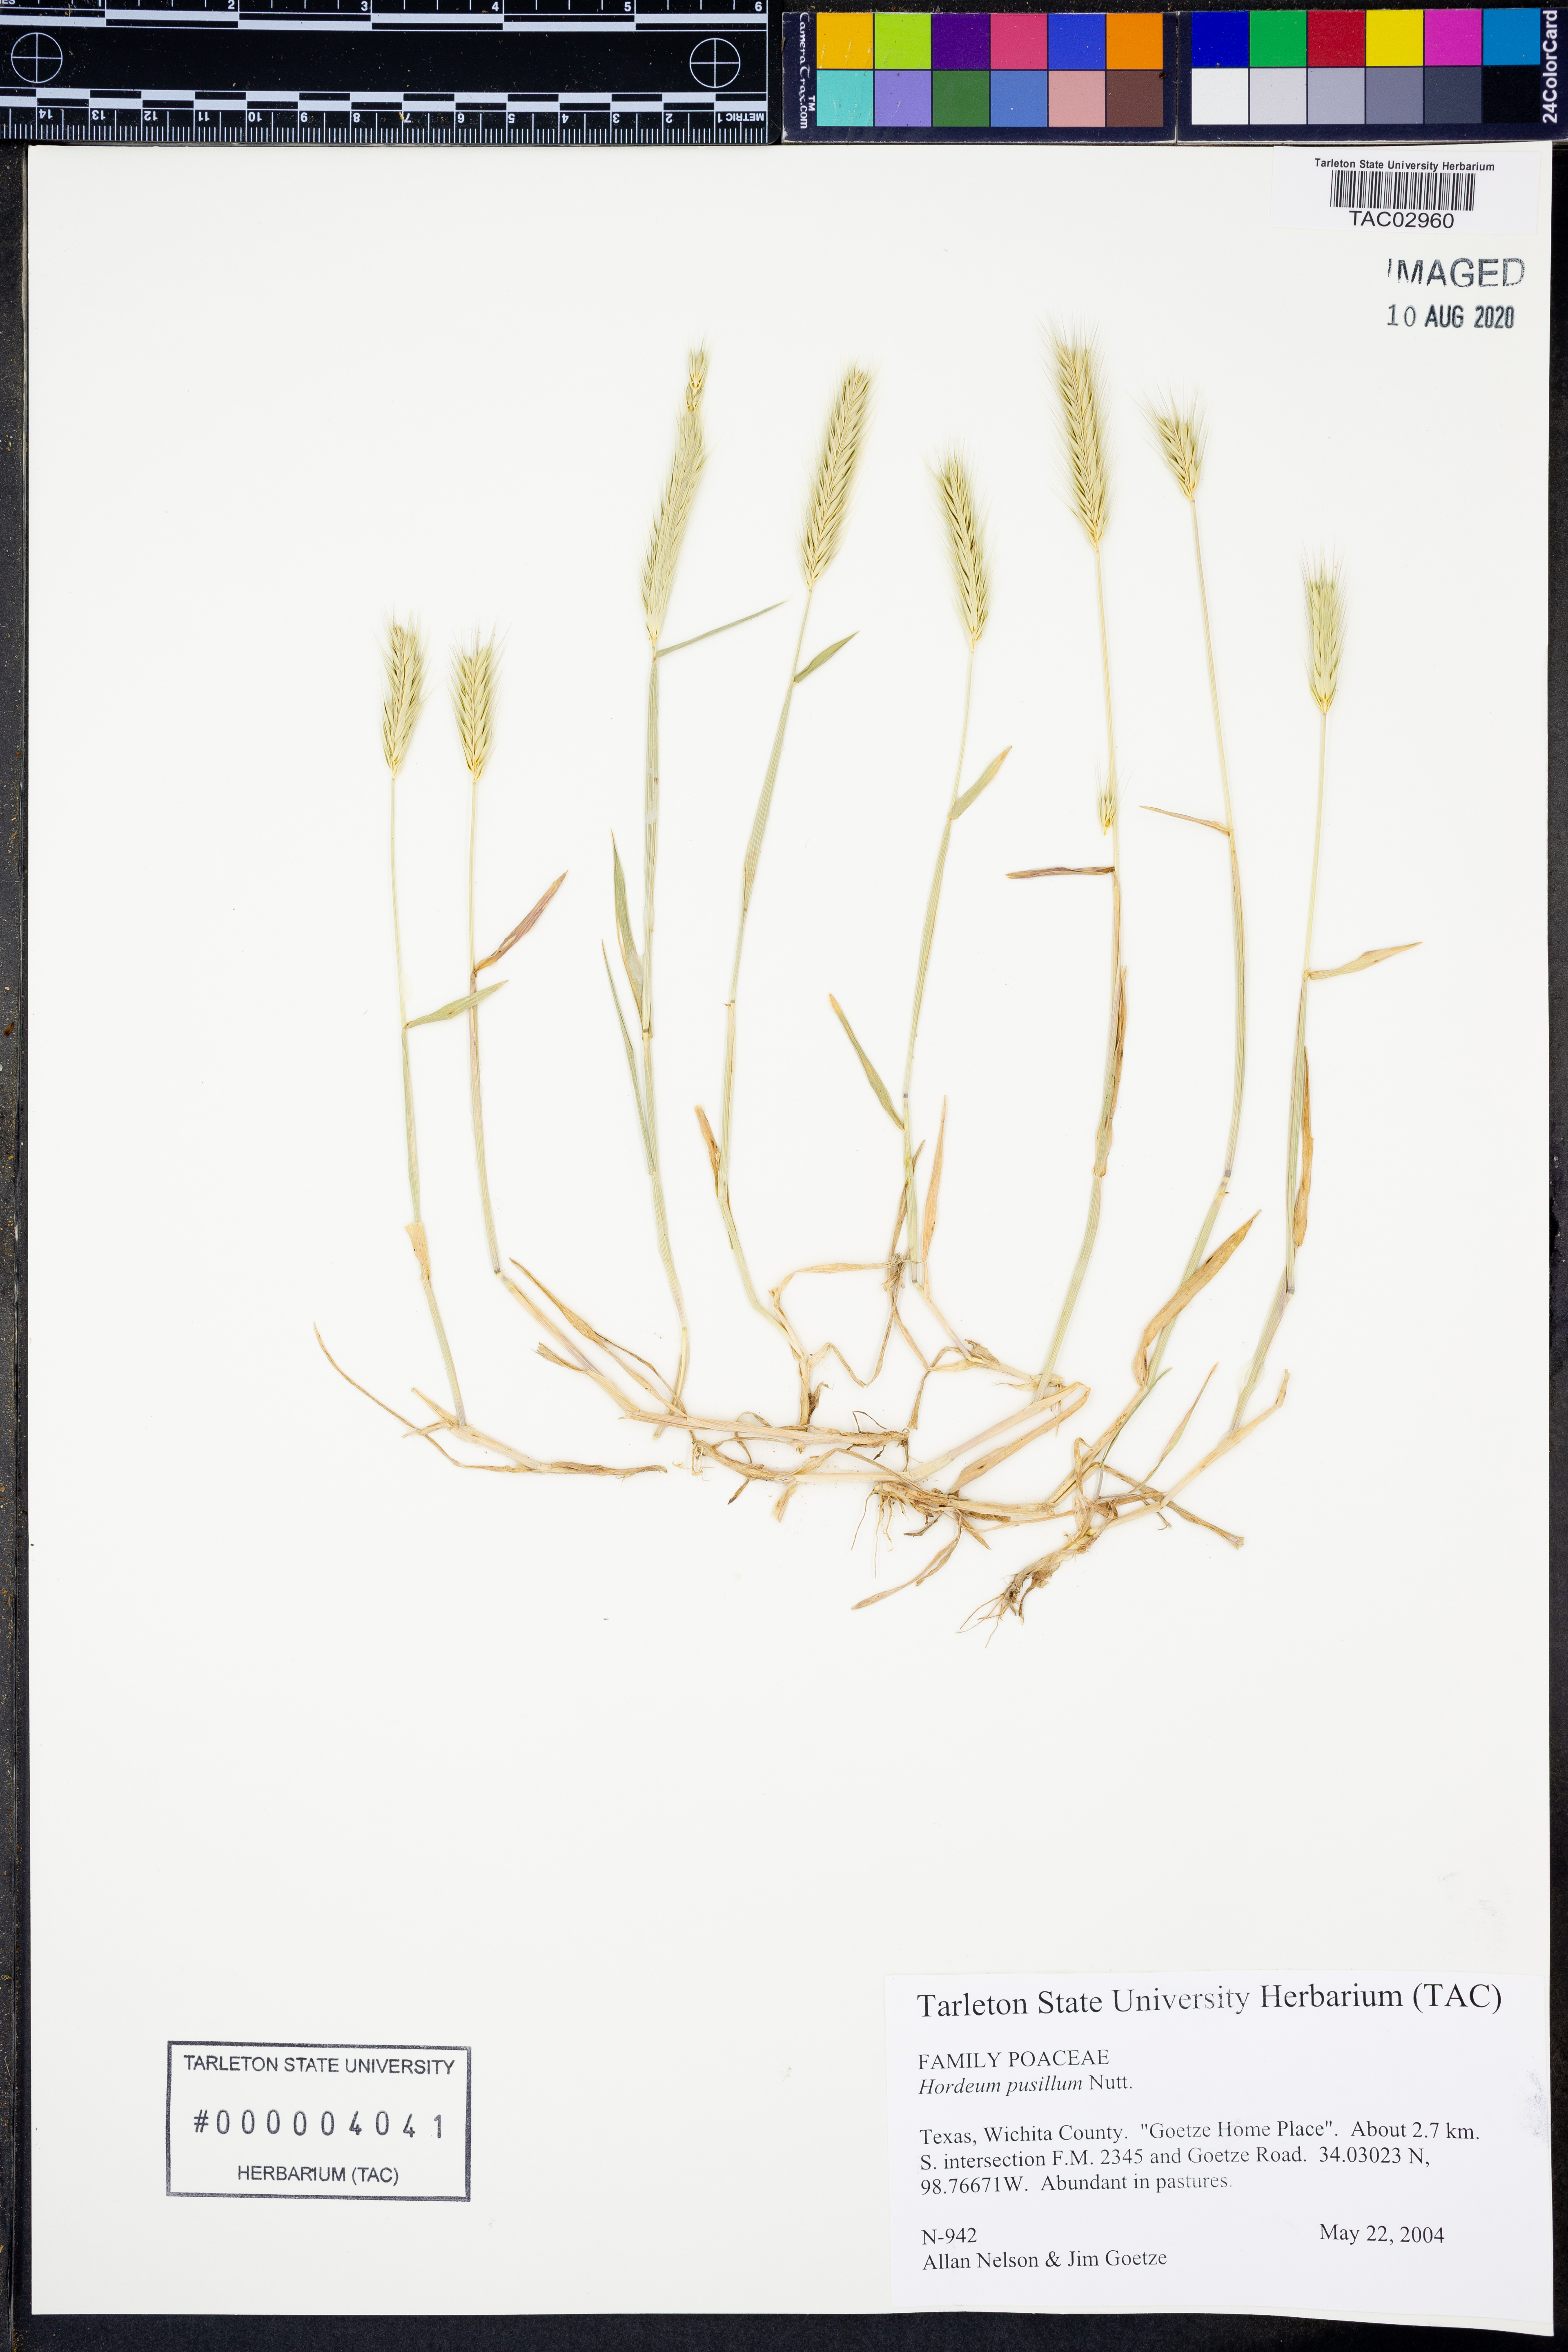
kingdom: Plantae
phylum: Tracheophyta
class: Liliopsida
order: Poales
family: Poaceae
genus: Hordeum
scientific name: Hordeum pusillum
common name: Little barley
